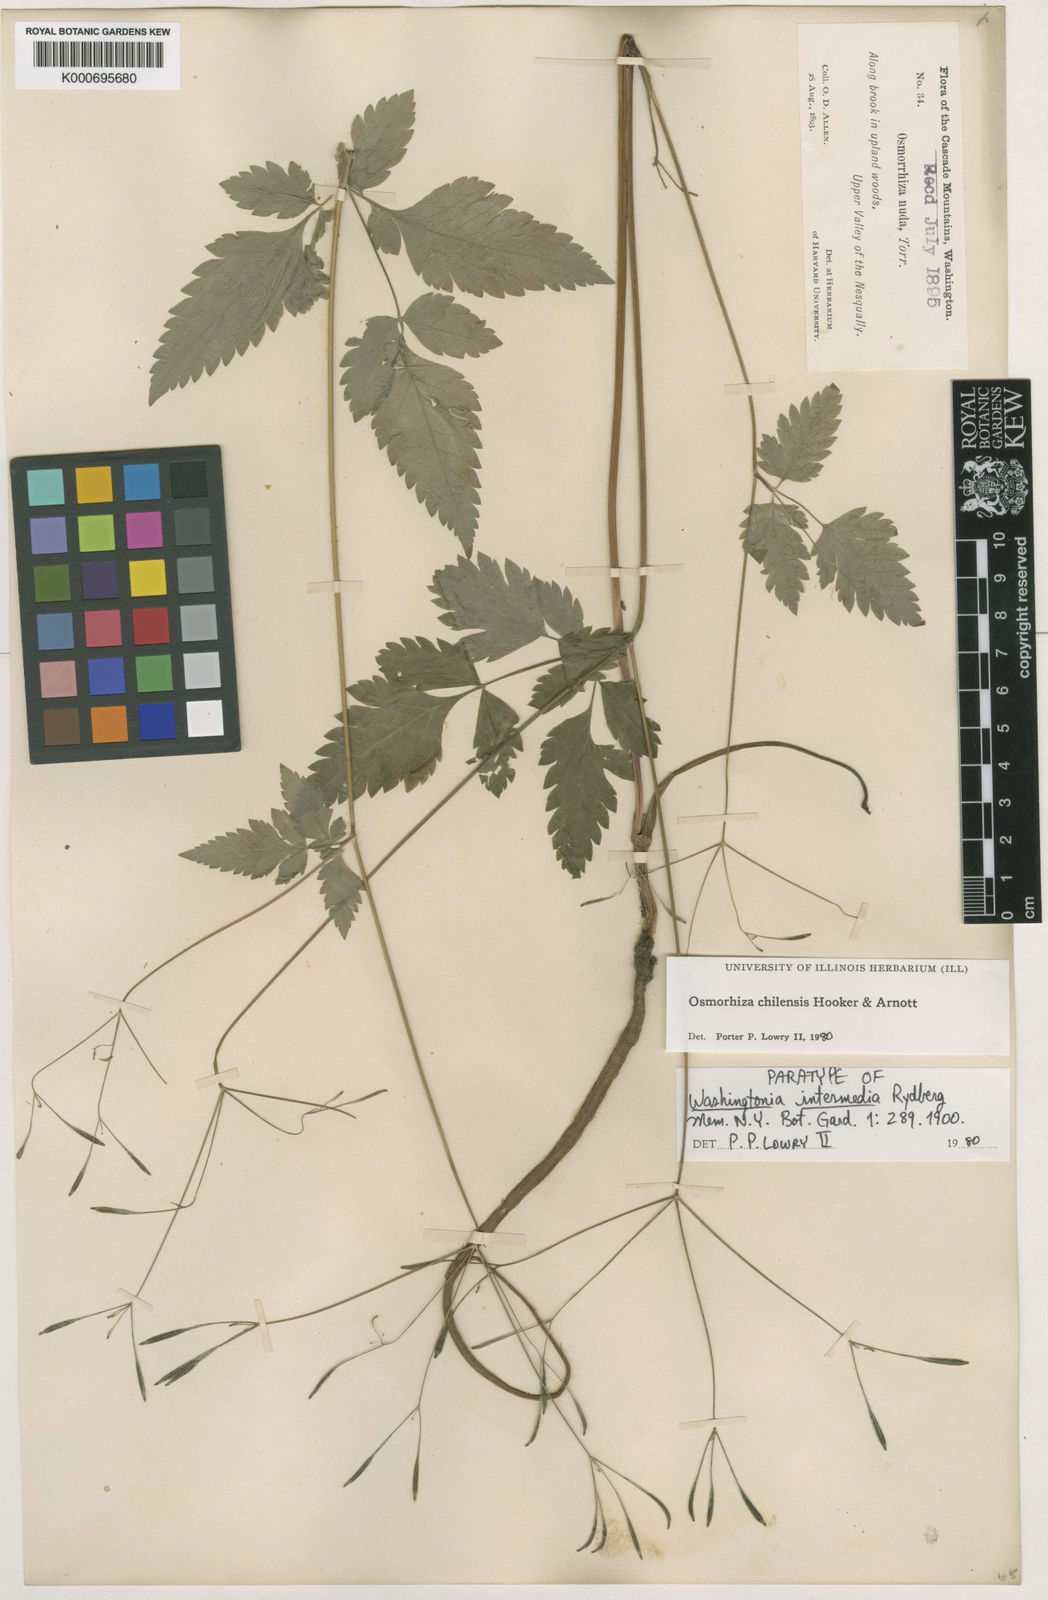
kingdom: Plantae
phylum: Tracheophyta
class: Magnoliopsida
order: Apiales
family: Apiaceae
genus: Osmorhiza
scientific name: Osmorhiza berteroi
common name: Mountain sweet cicely
